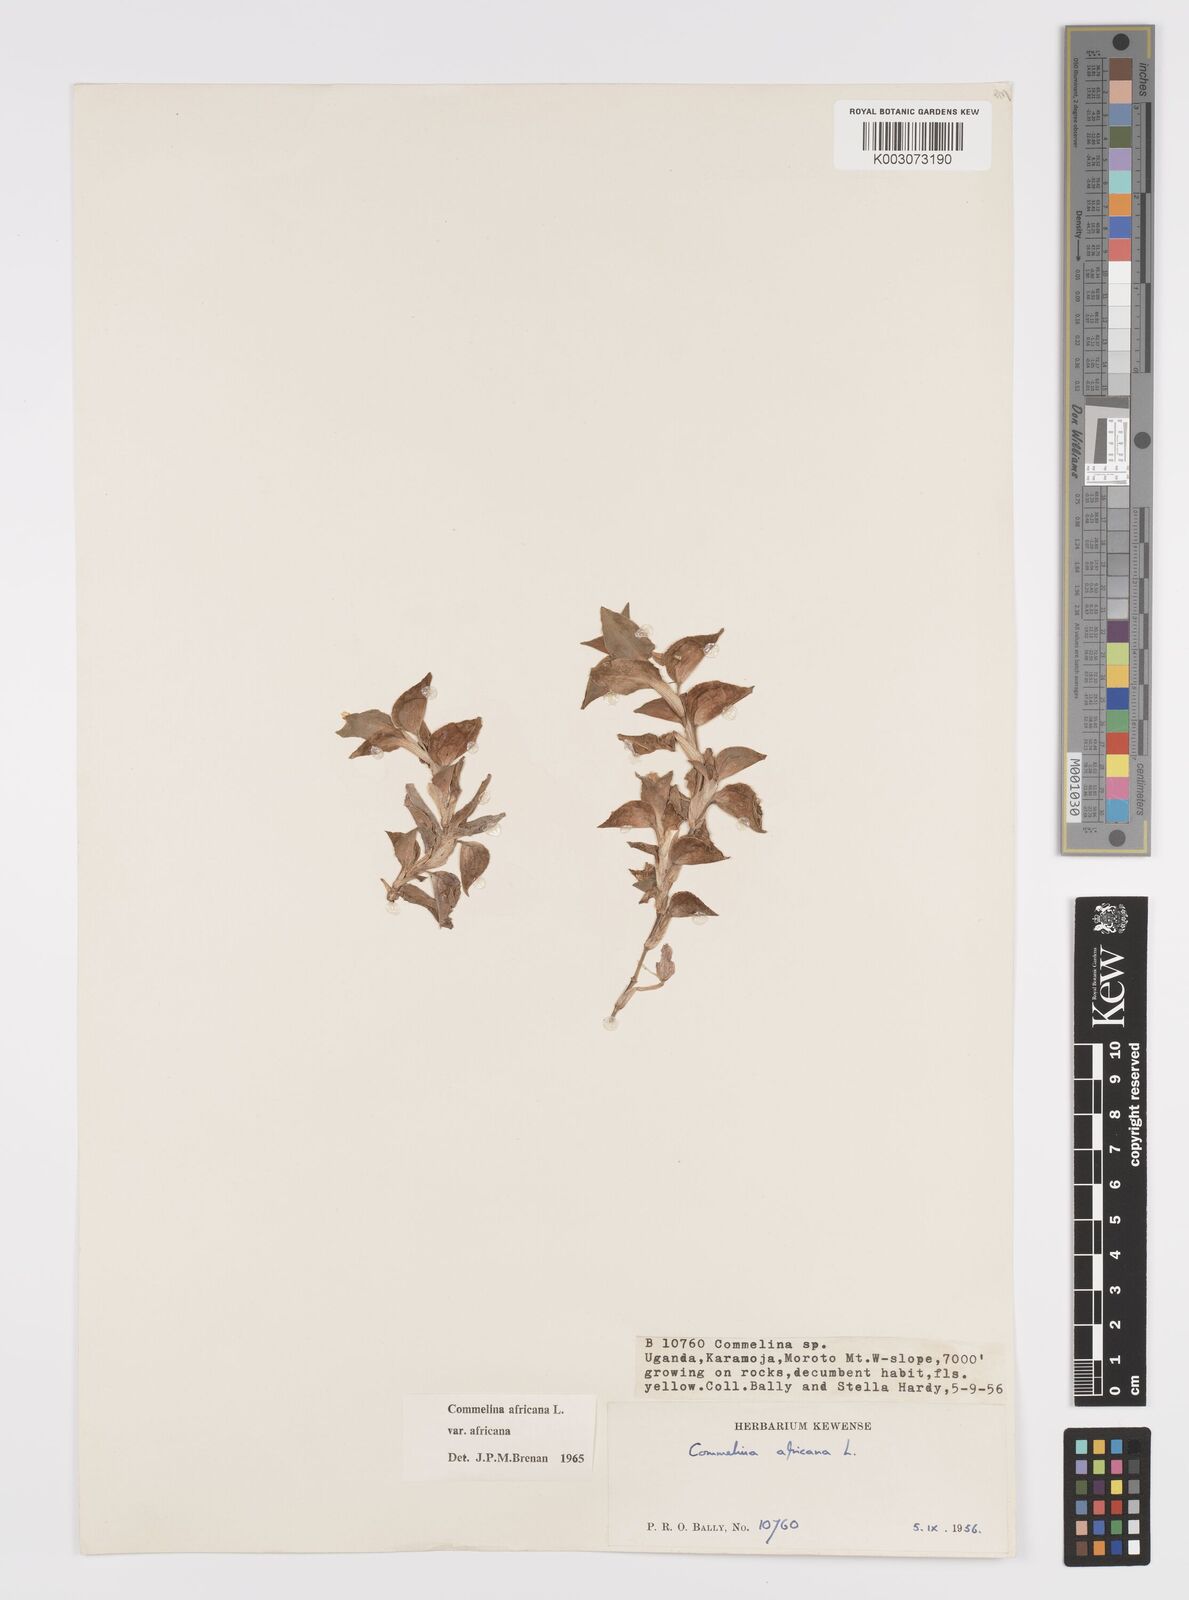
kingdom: Plantae
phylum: Tracheophyta
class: Liliopsida
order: Commelinales
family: Commelinaceae
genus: Commelina
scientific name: Commelina africana
